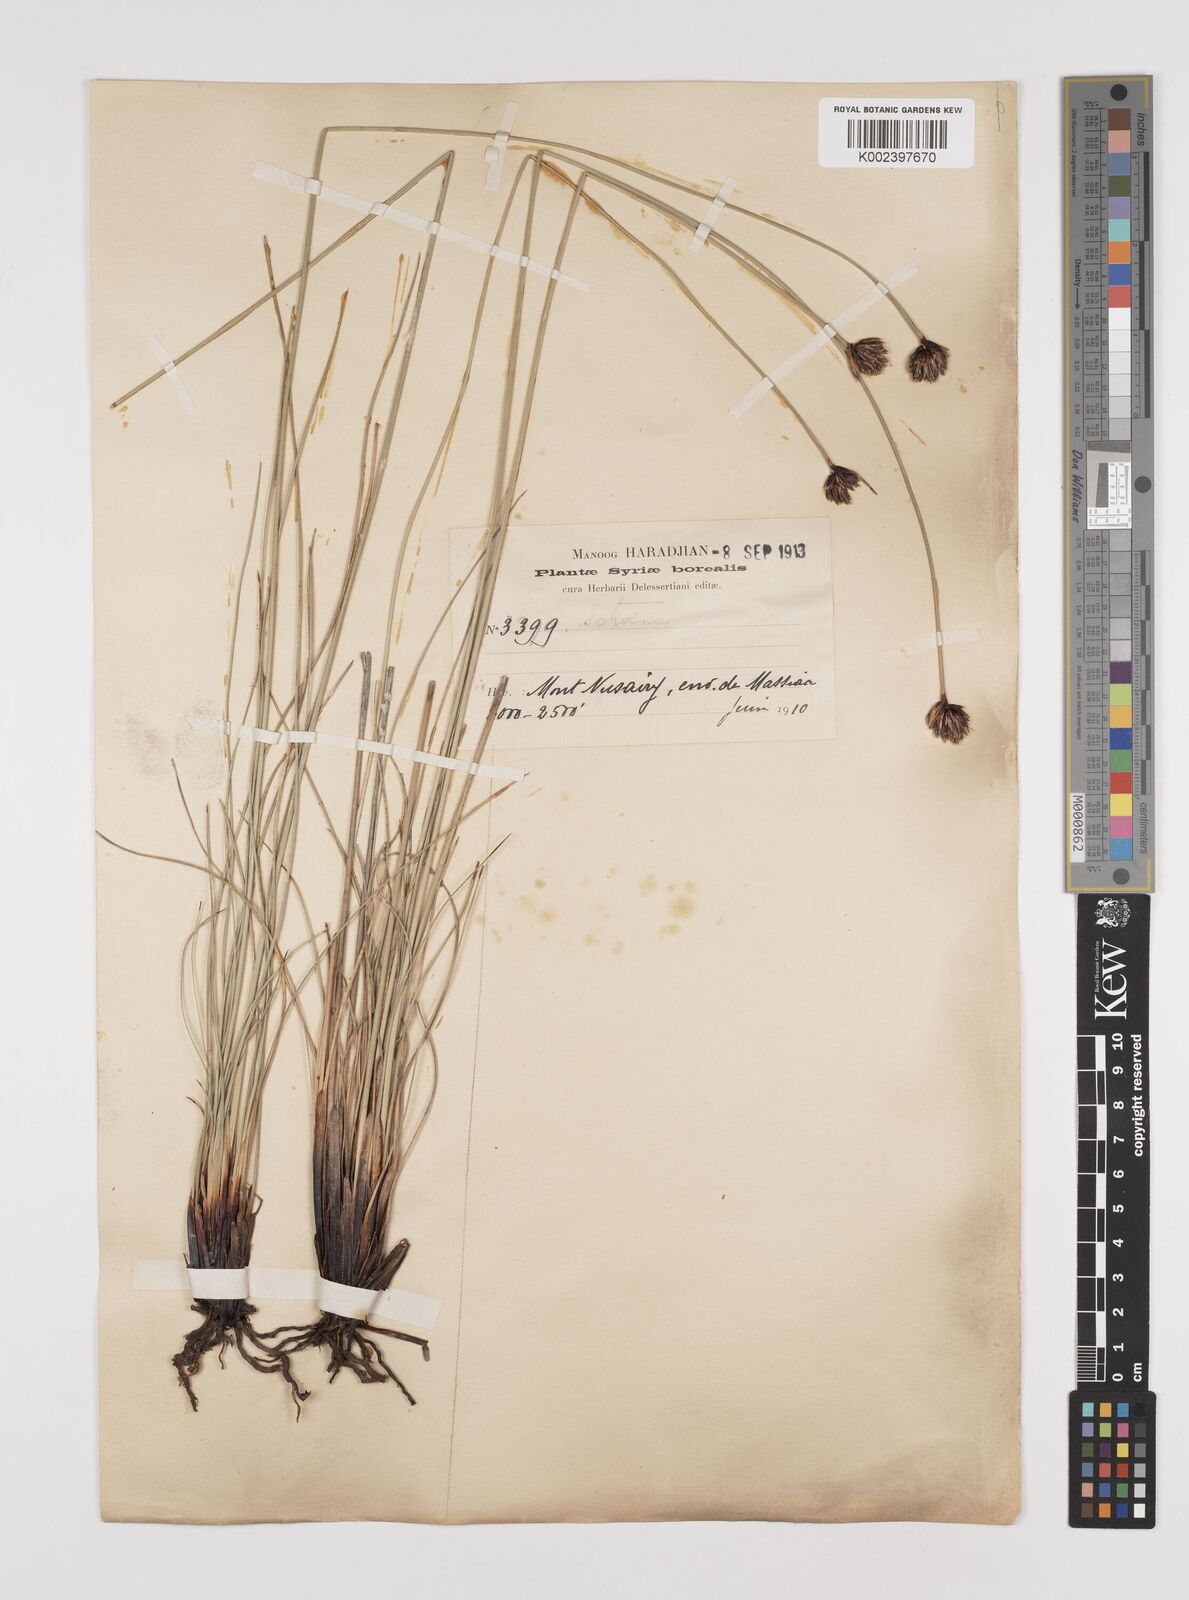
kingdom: Plantae
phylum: Tracheophyta
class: Liliopsida
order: Poales
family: Cyperaceae
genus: Schoenus
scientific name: Schoenus nigricans
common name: Black bog-rush
